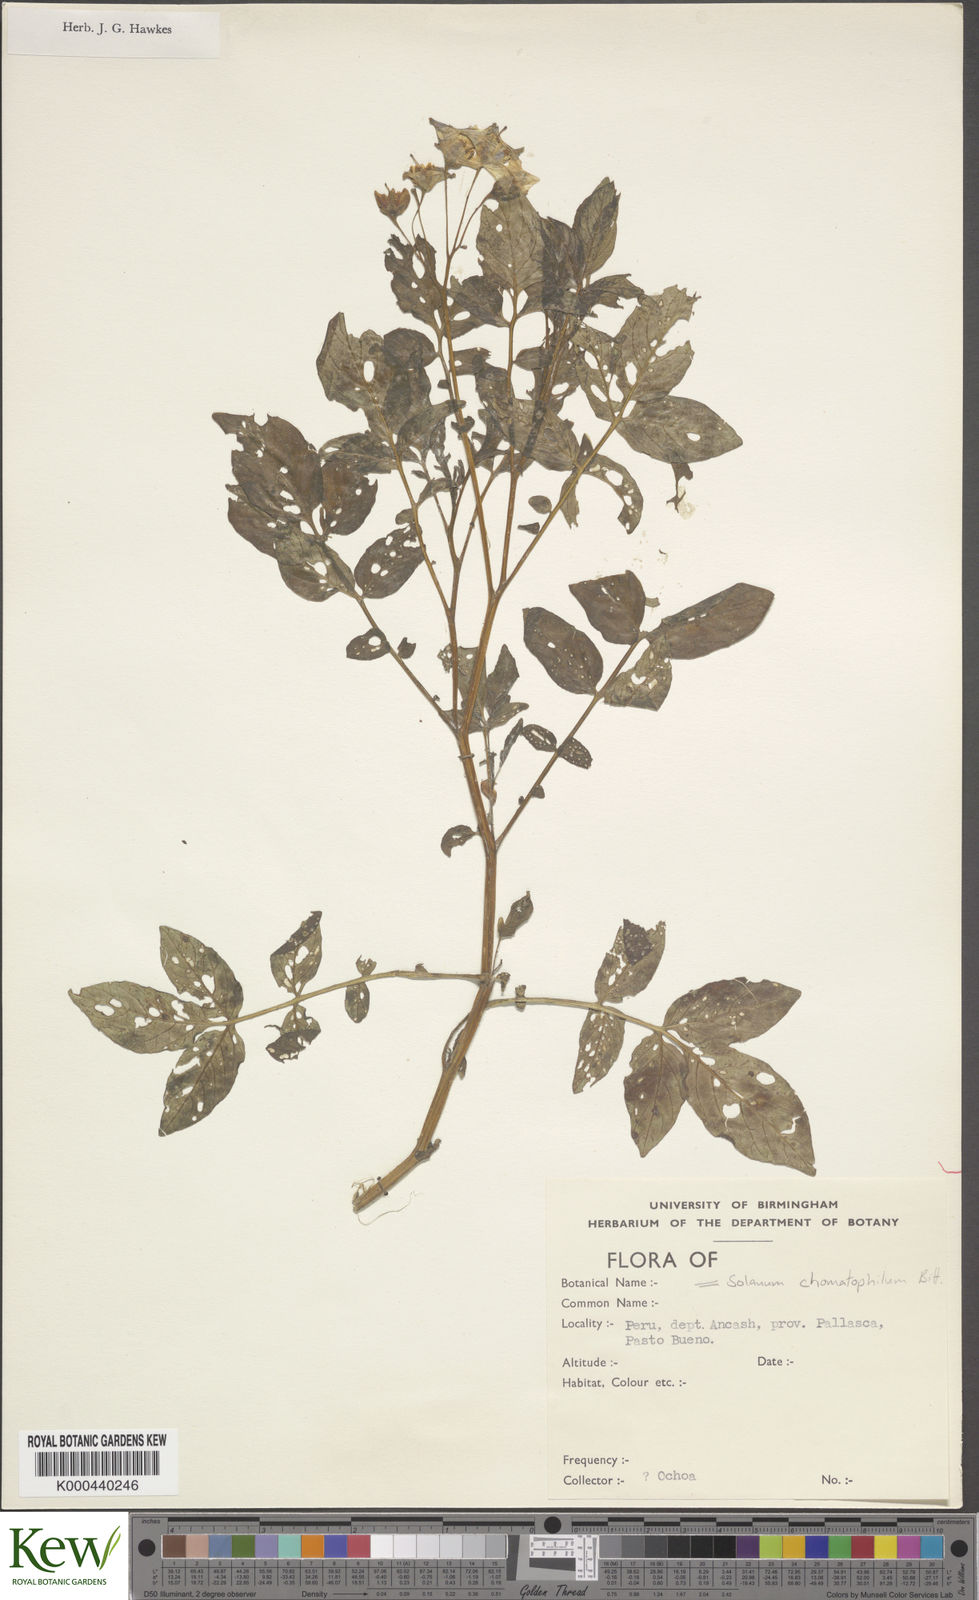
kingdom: Plantae
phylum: Tracheophyta
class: Magnoliopsida
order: Solanales
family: Solanaceae
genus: Solanum
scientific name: Solanum chomatophilum
